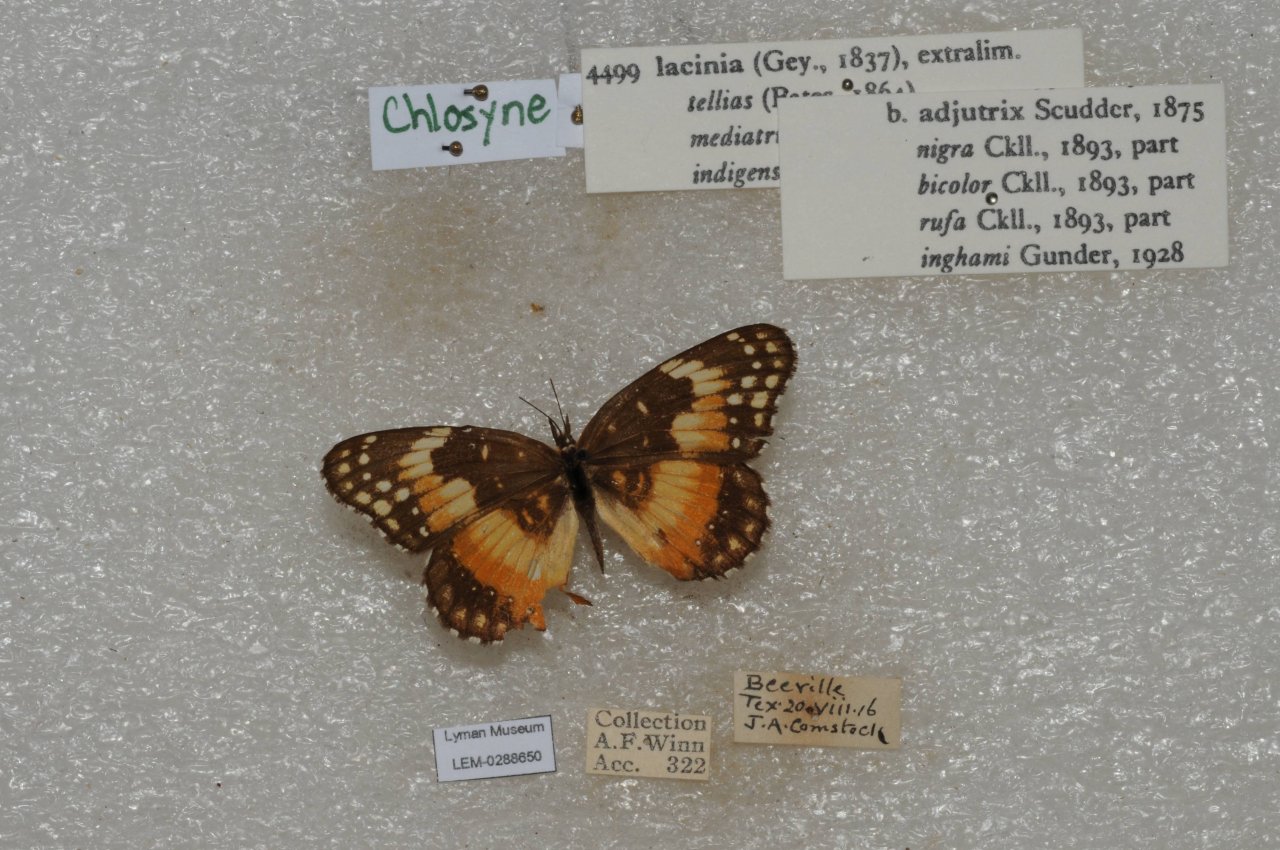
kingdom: Animalia
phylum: Arthropoda
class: Insecta
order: Lepidoptera
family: Nymphalidae
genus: Chlosyne
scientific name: Chlosyne lacinia
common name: Bordered Patch
